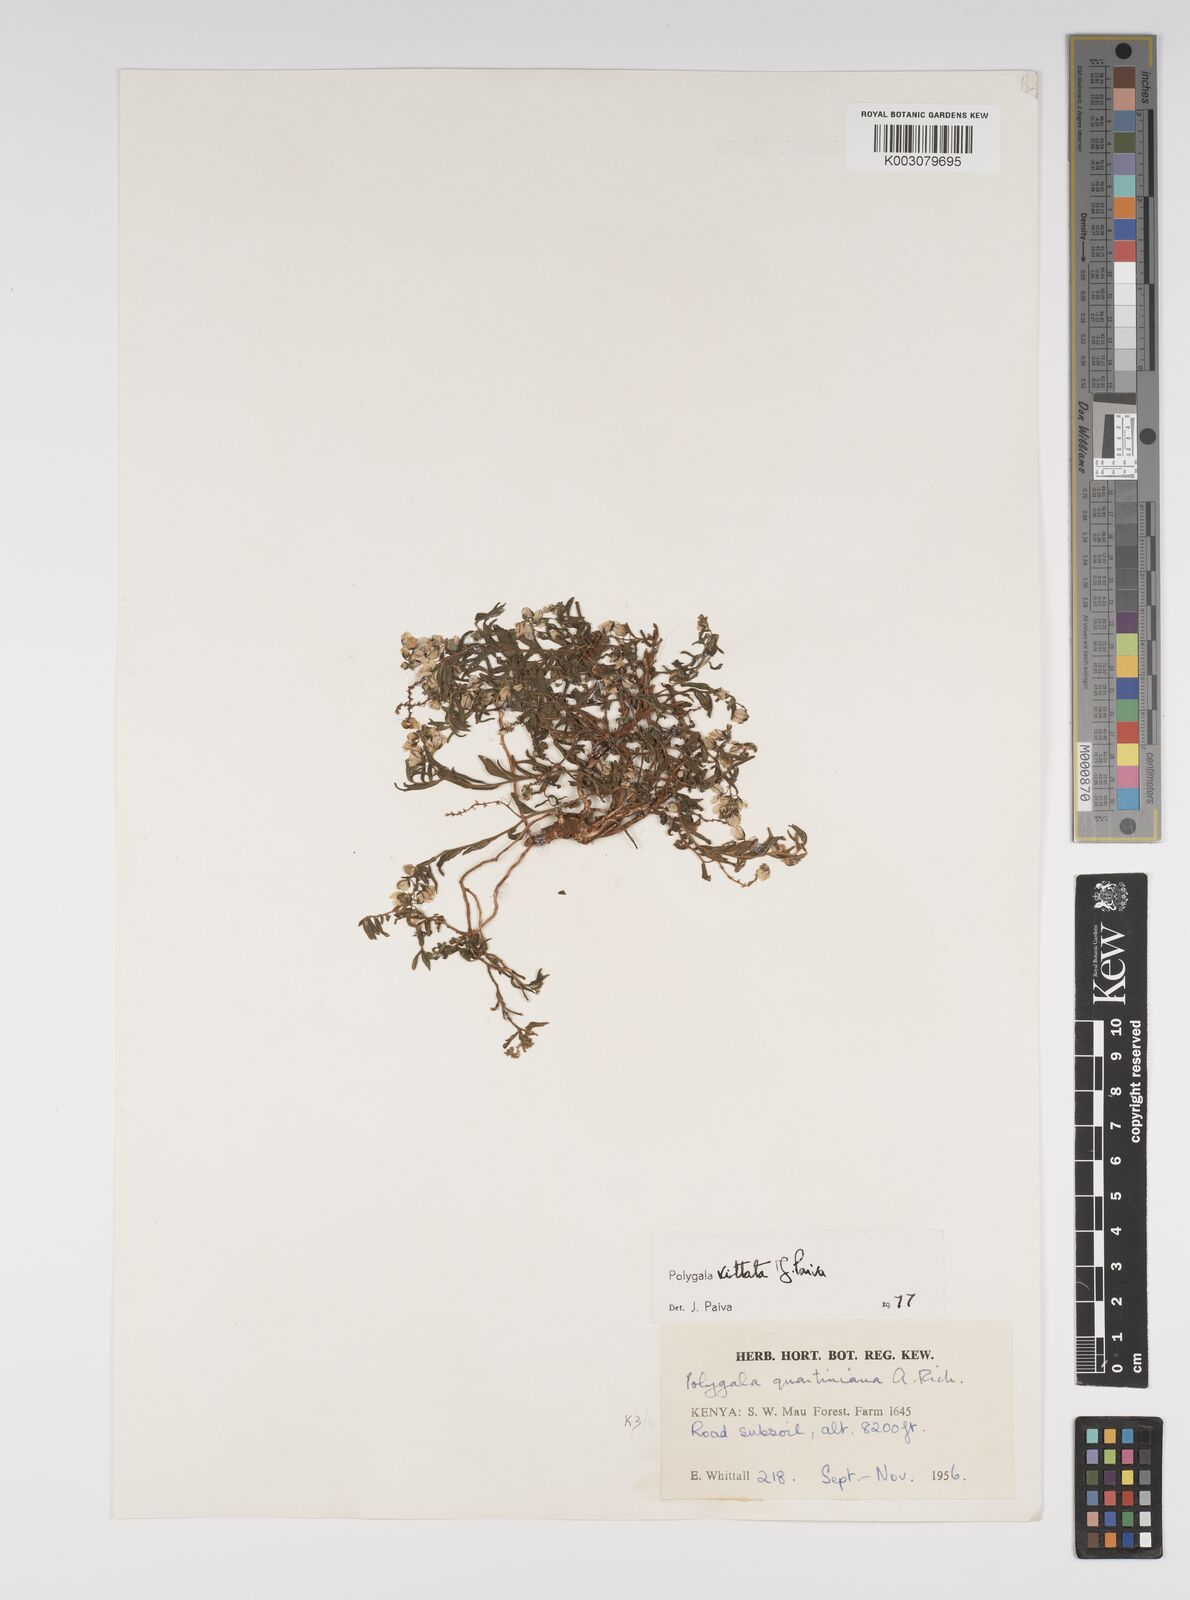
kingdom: Plantae
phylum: Tracheophyta
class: Magnoliopsida
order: Fabales
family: Polygalaceae
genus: Polygala
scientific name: Polygala vittata
